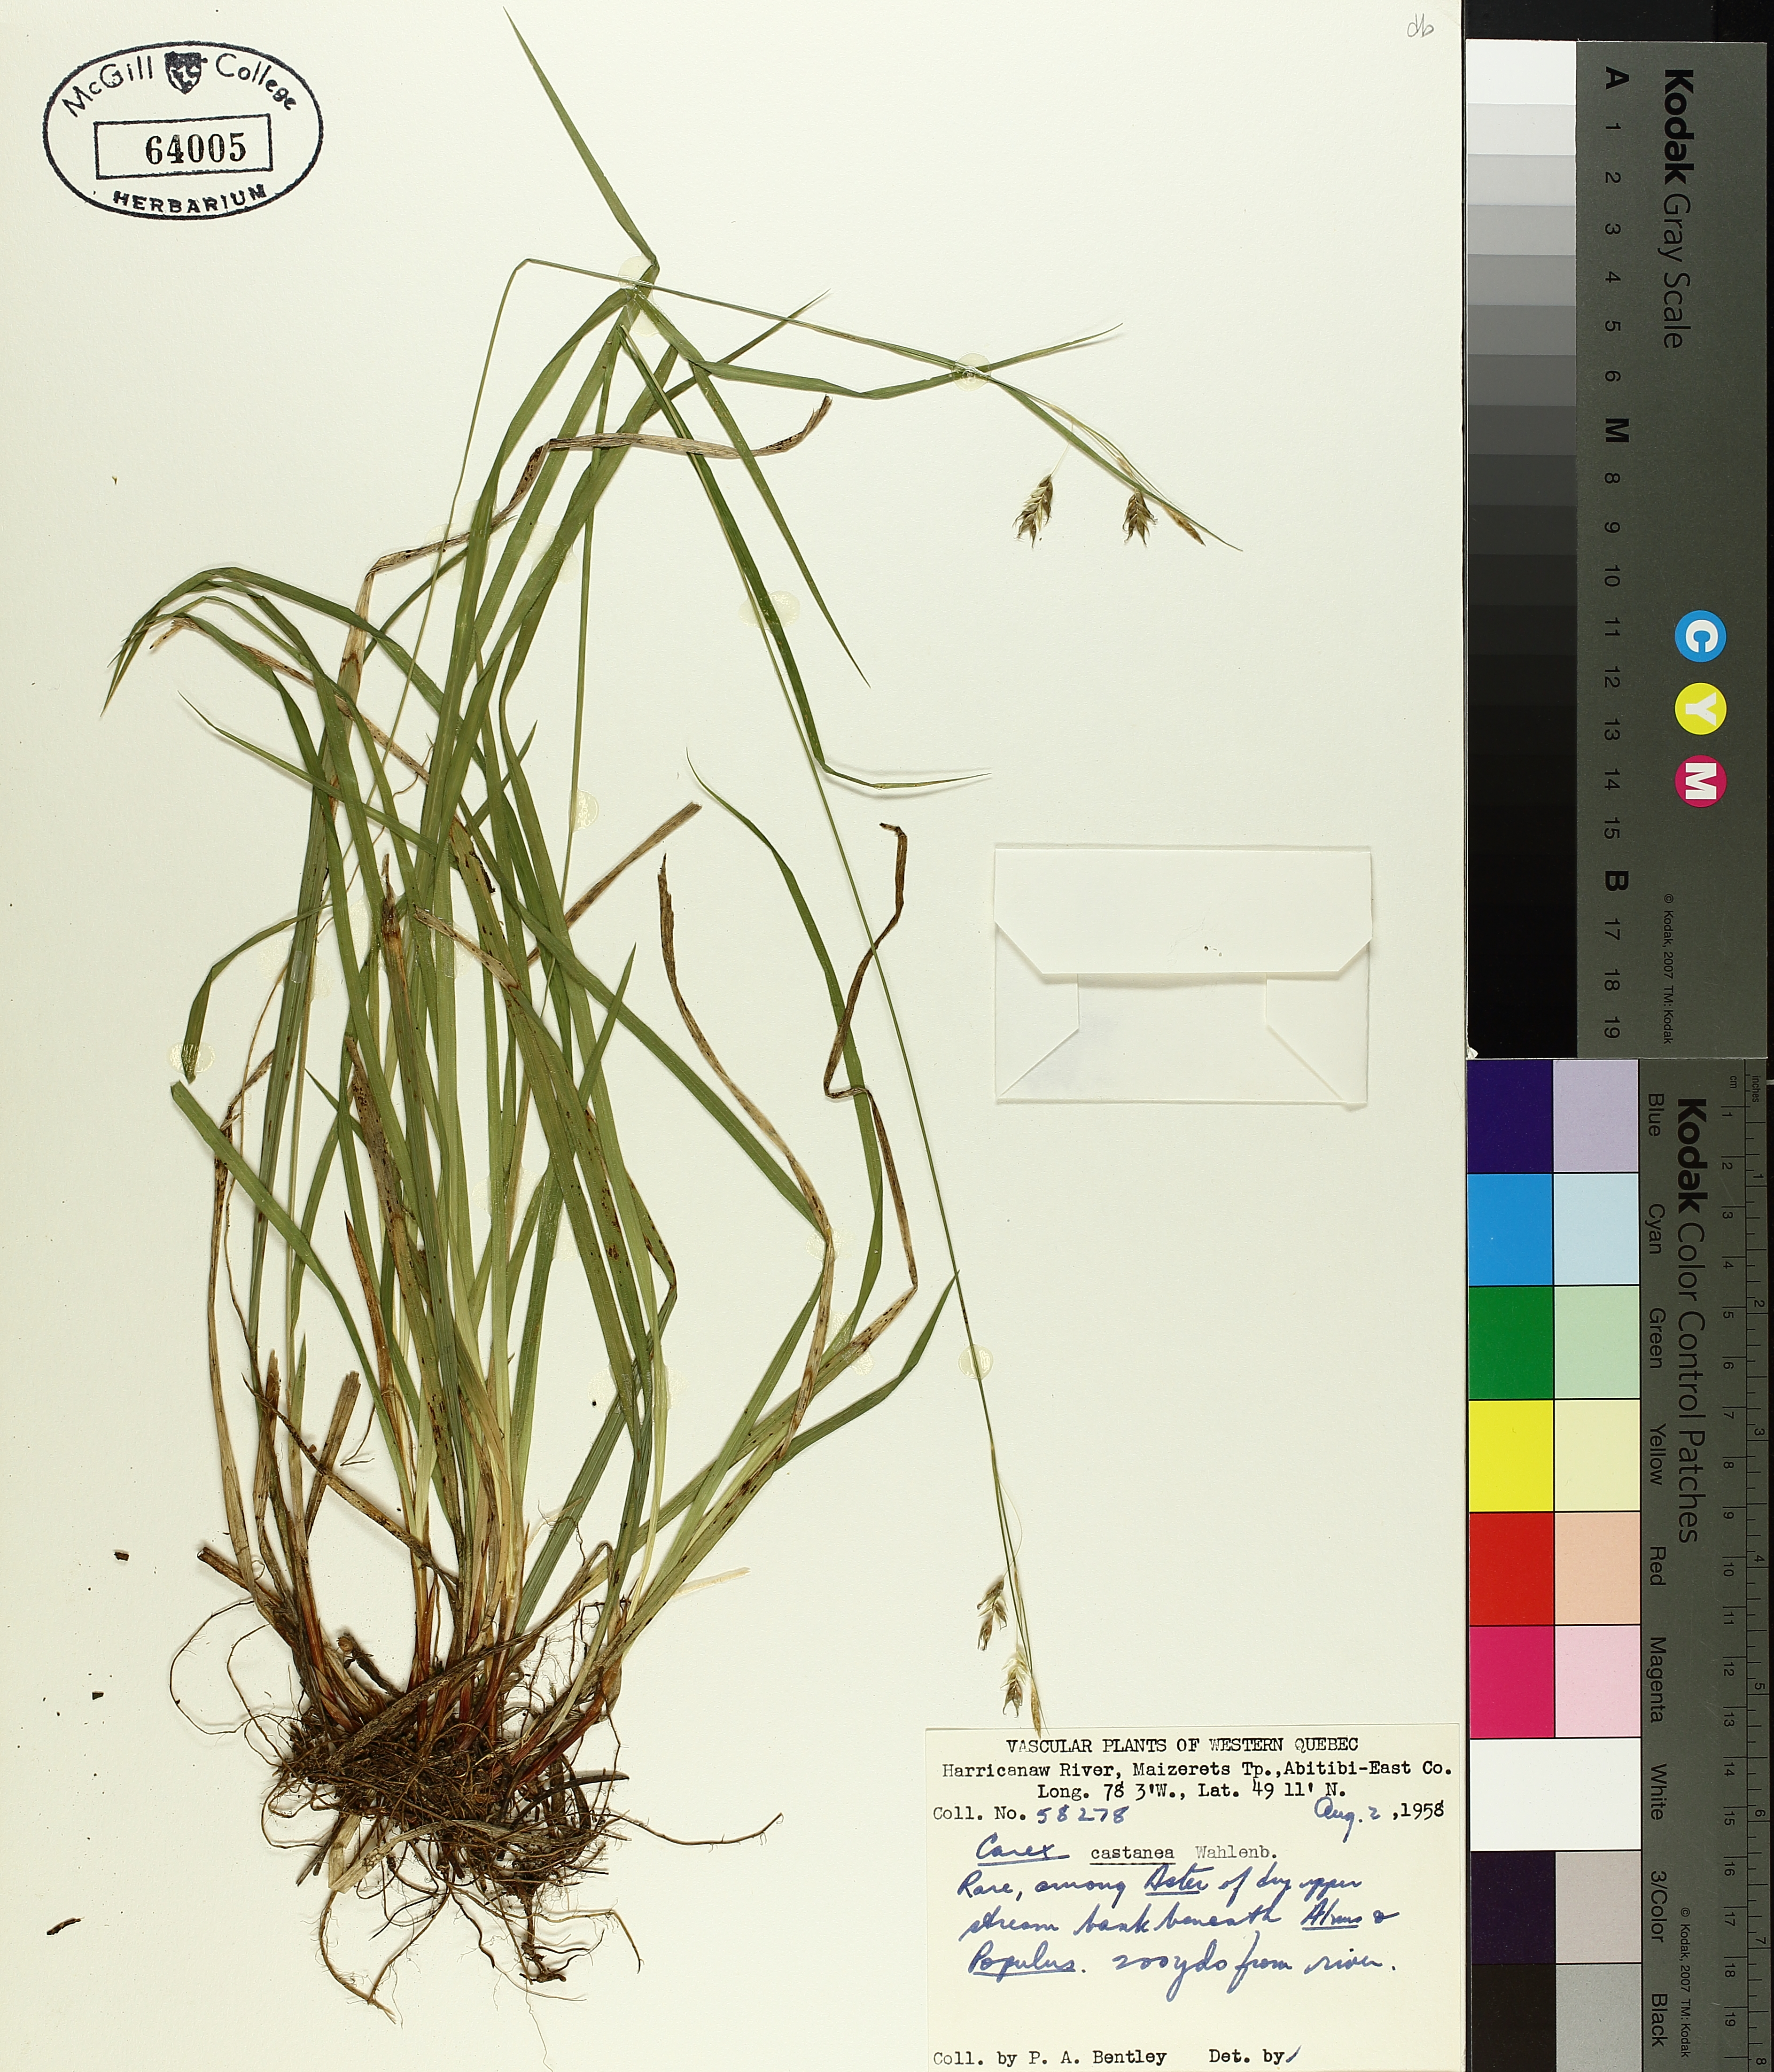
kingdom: Plantae
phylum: Tracheophyta
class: Liliopsida
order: Poales
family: Cyperaceae
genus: Carex
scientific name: Carex castanea
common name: Chestnut sedge
